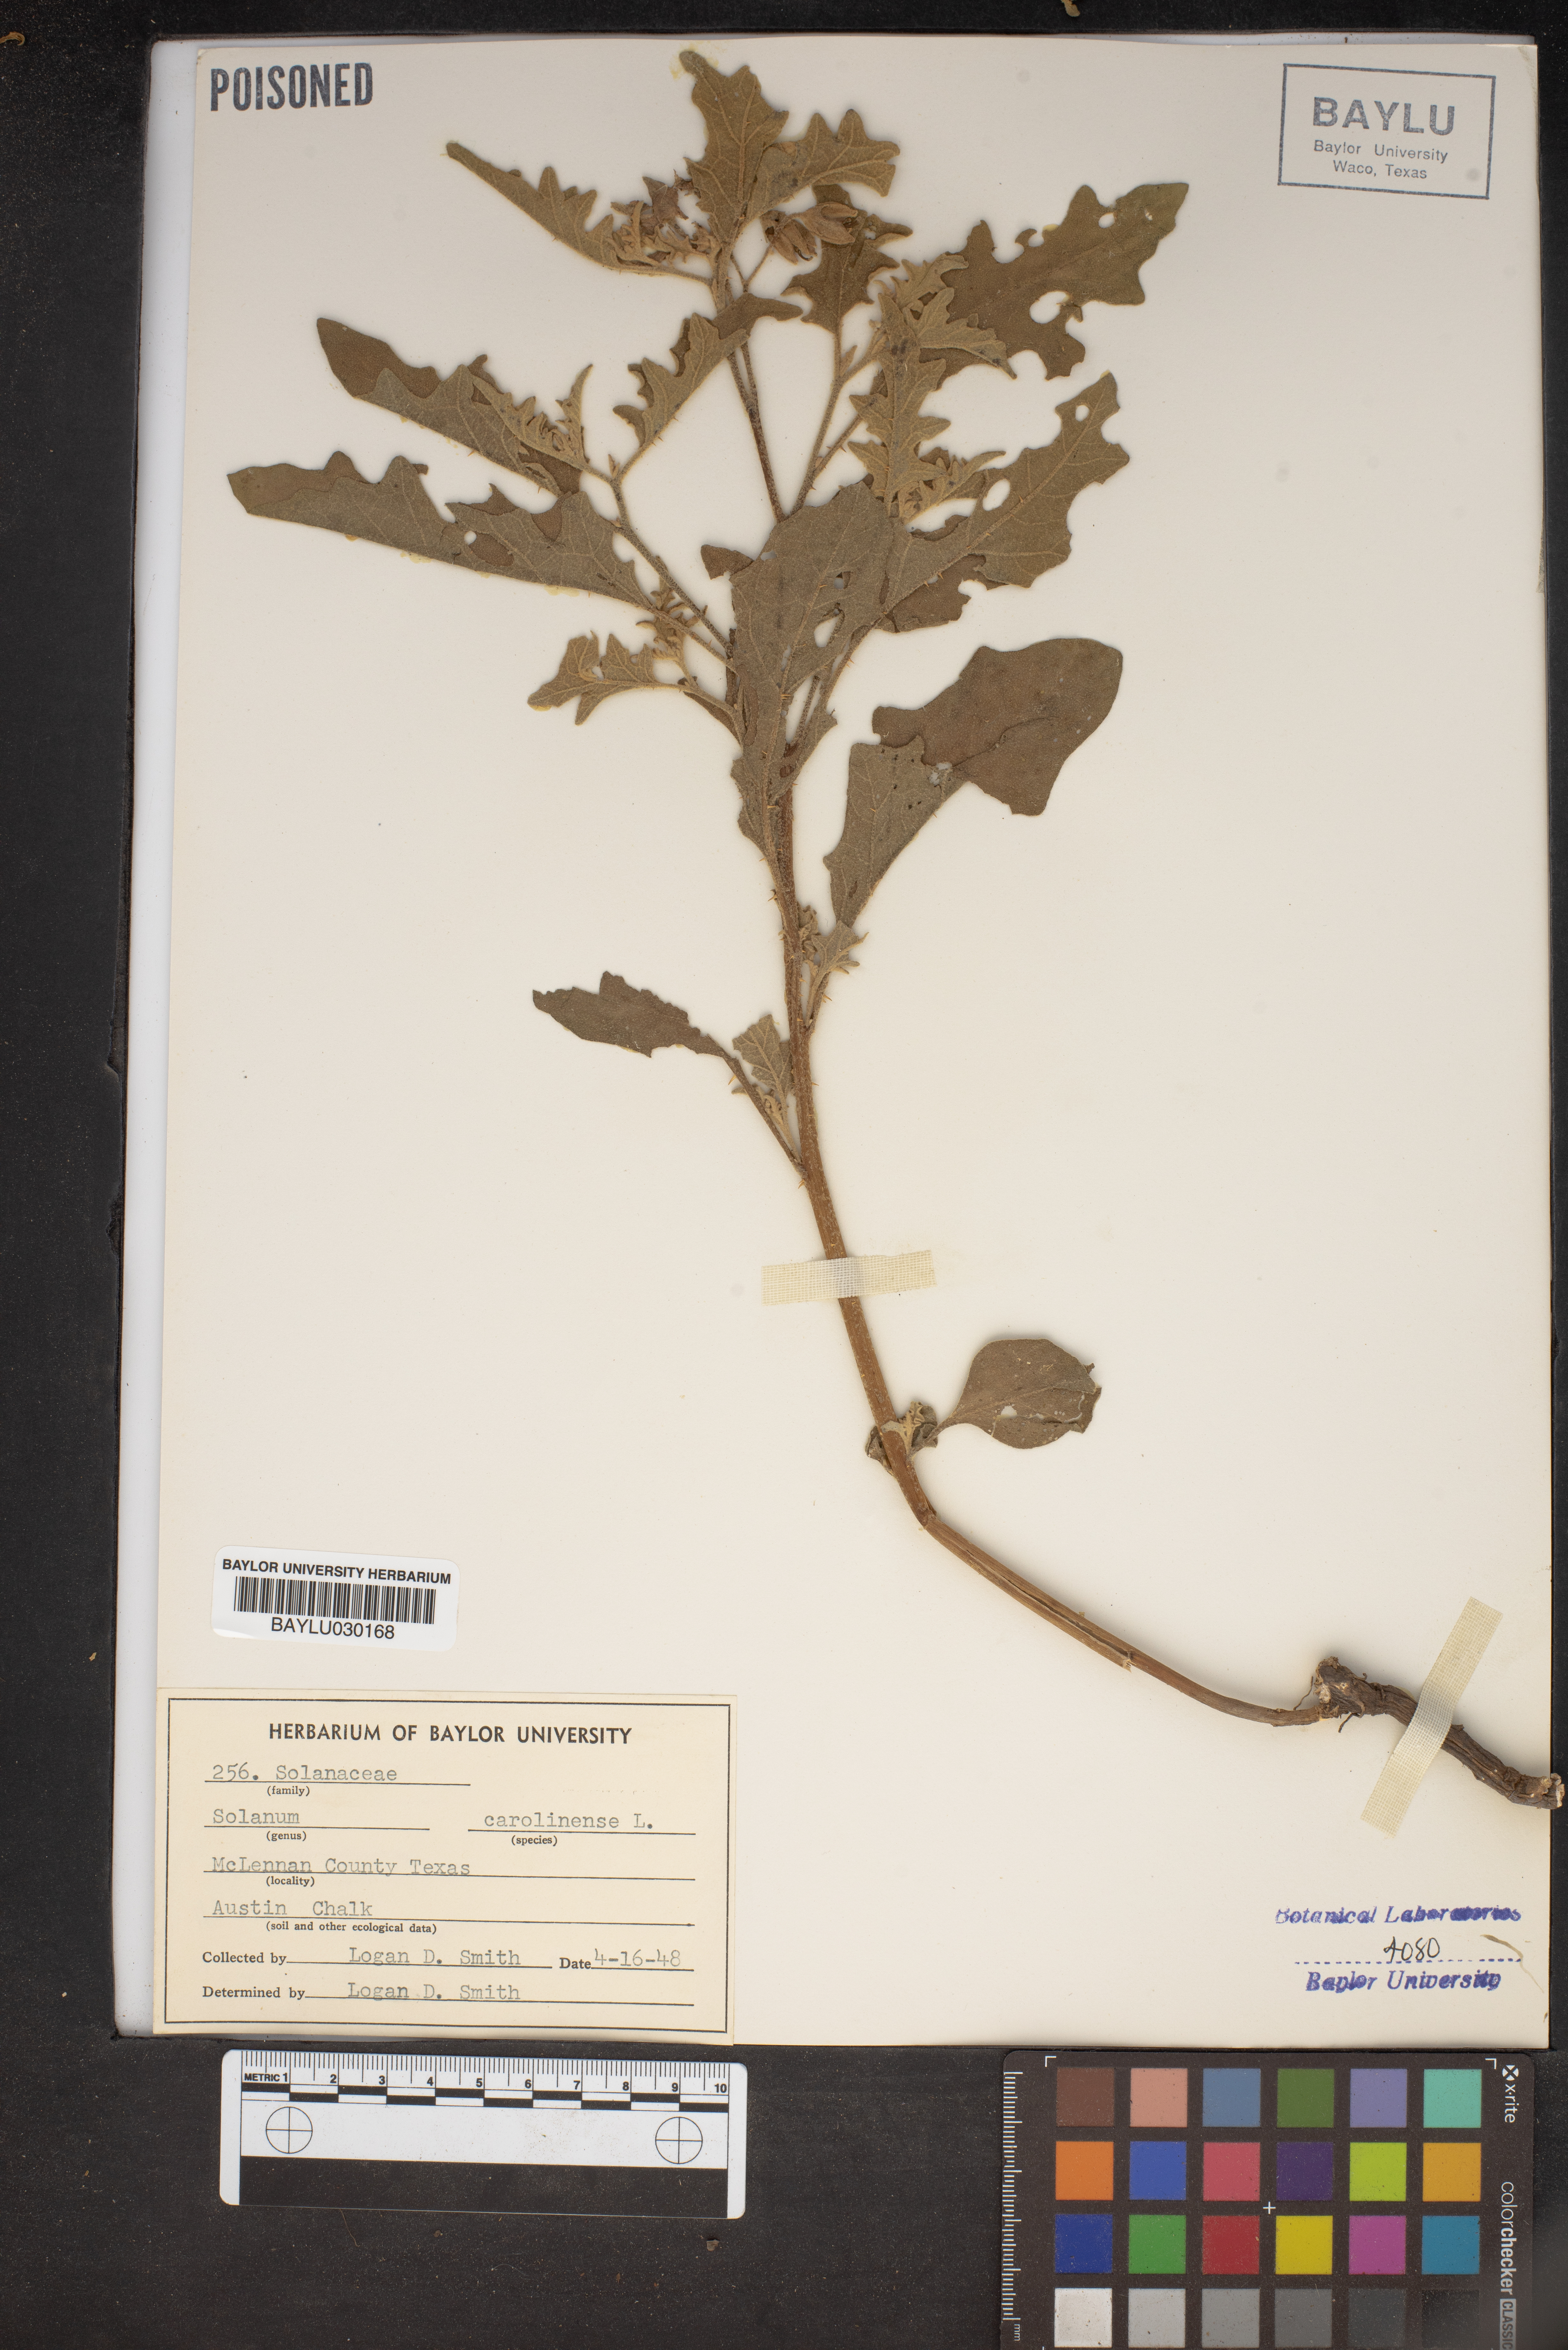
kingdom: Plantae
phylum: Tracheophyta
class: Magnoliopsida
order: Solanales
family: Solanaceae
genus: Solanum
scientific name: Solanum carolinense
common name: Horse-nettle
